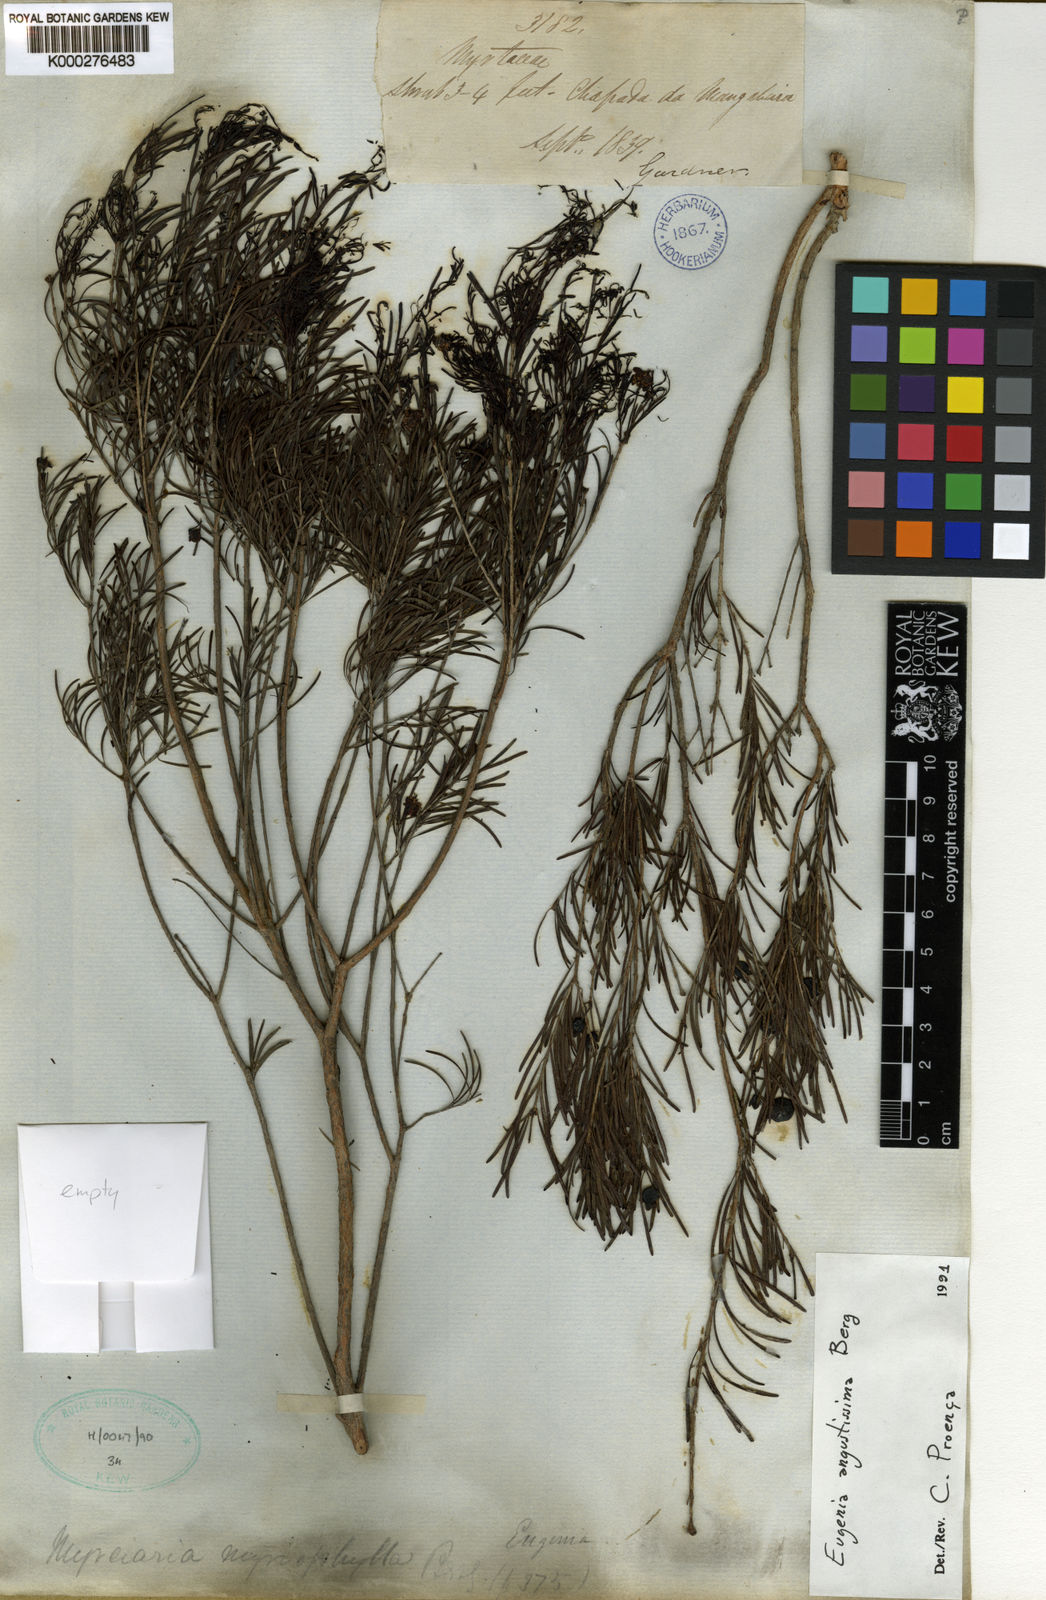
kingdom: Plantae
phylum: Tracheophyta
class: Magnoliopsida
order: Myrtales
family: Myrtaceae
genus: Eugenia
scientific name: Eugenia angustissima
